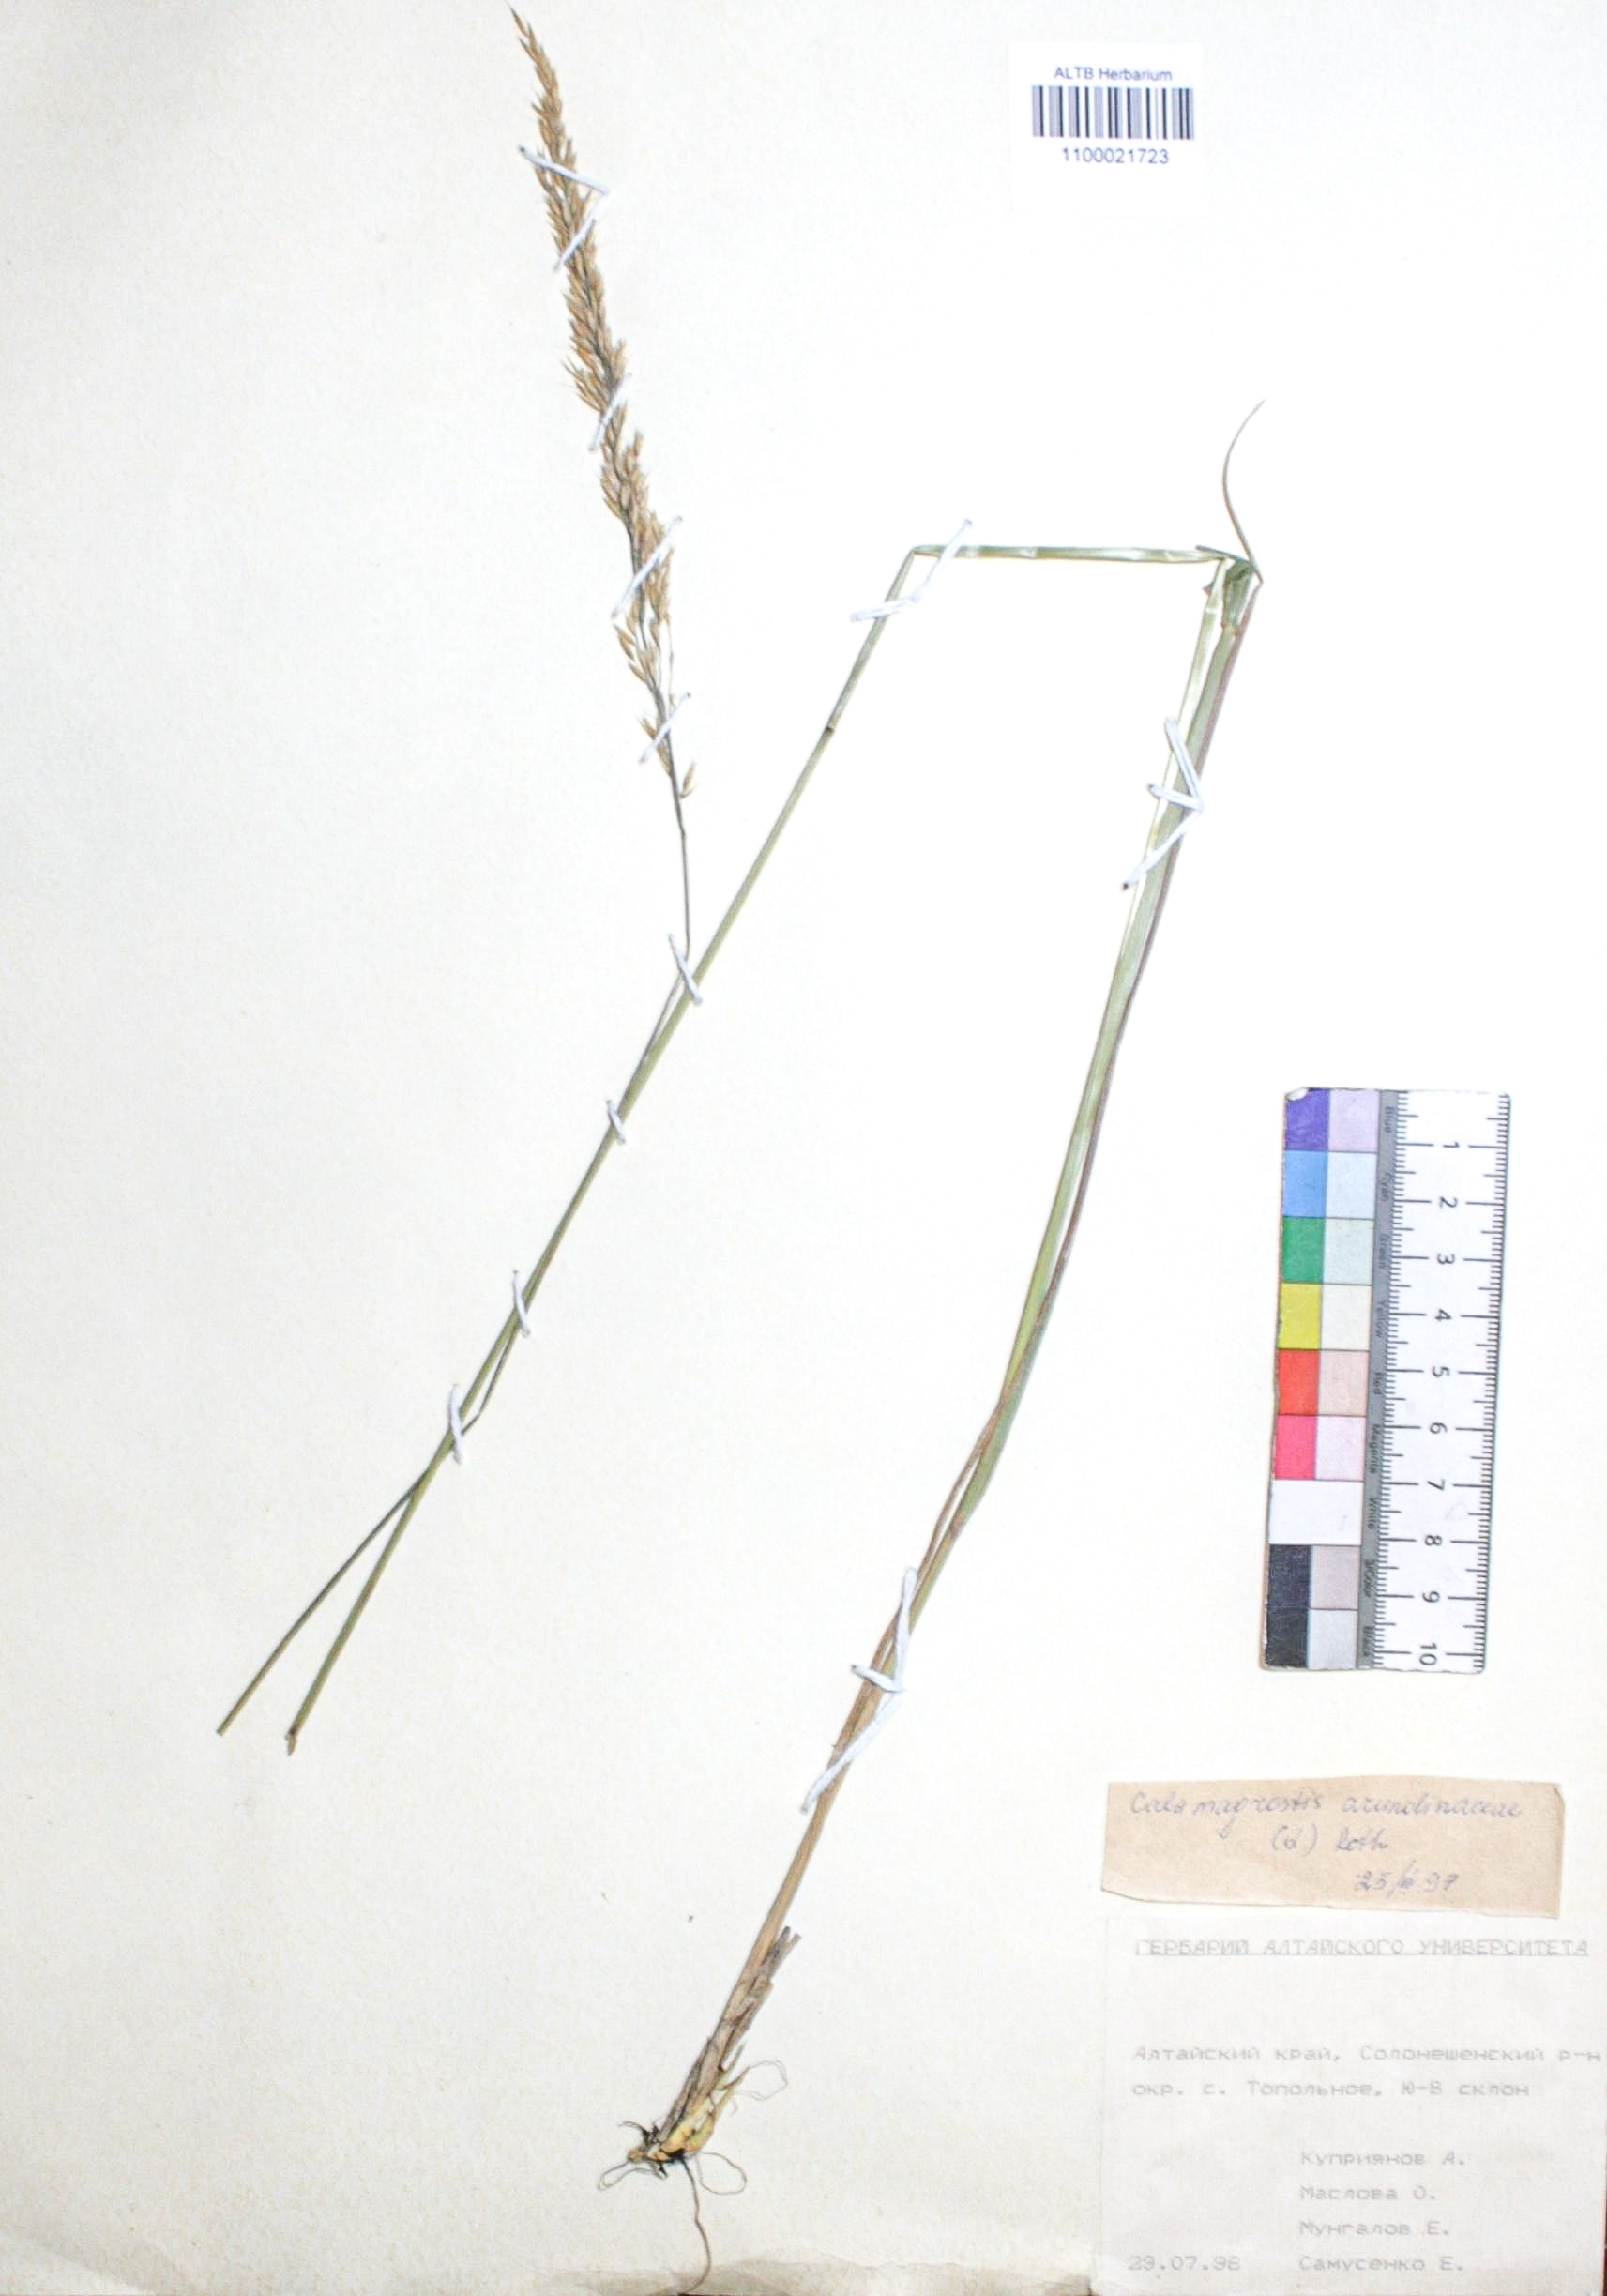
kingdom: Plantae
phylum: Tracheophyta
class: Liliopsida
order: Poales
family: Poaceae
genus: Calamagrostis
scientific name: Calamagrostis arundinacea
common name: Metskastik
